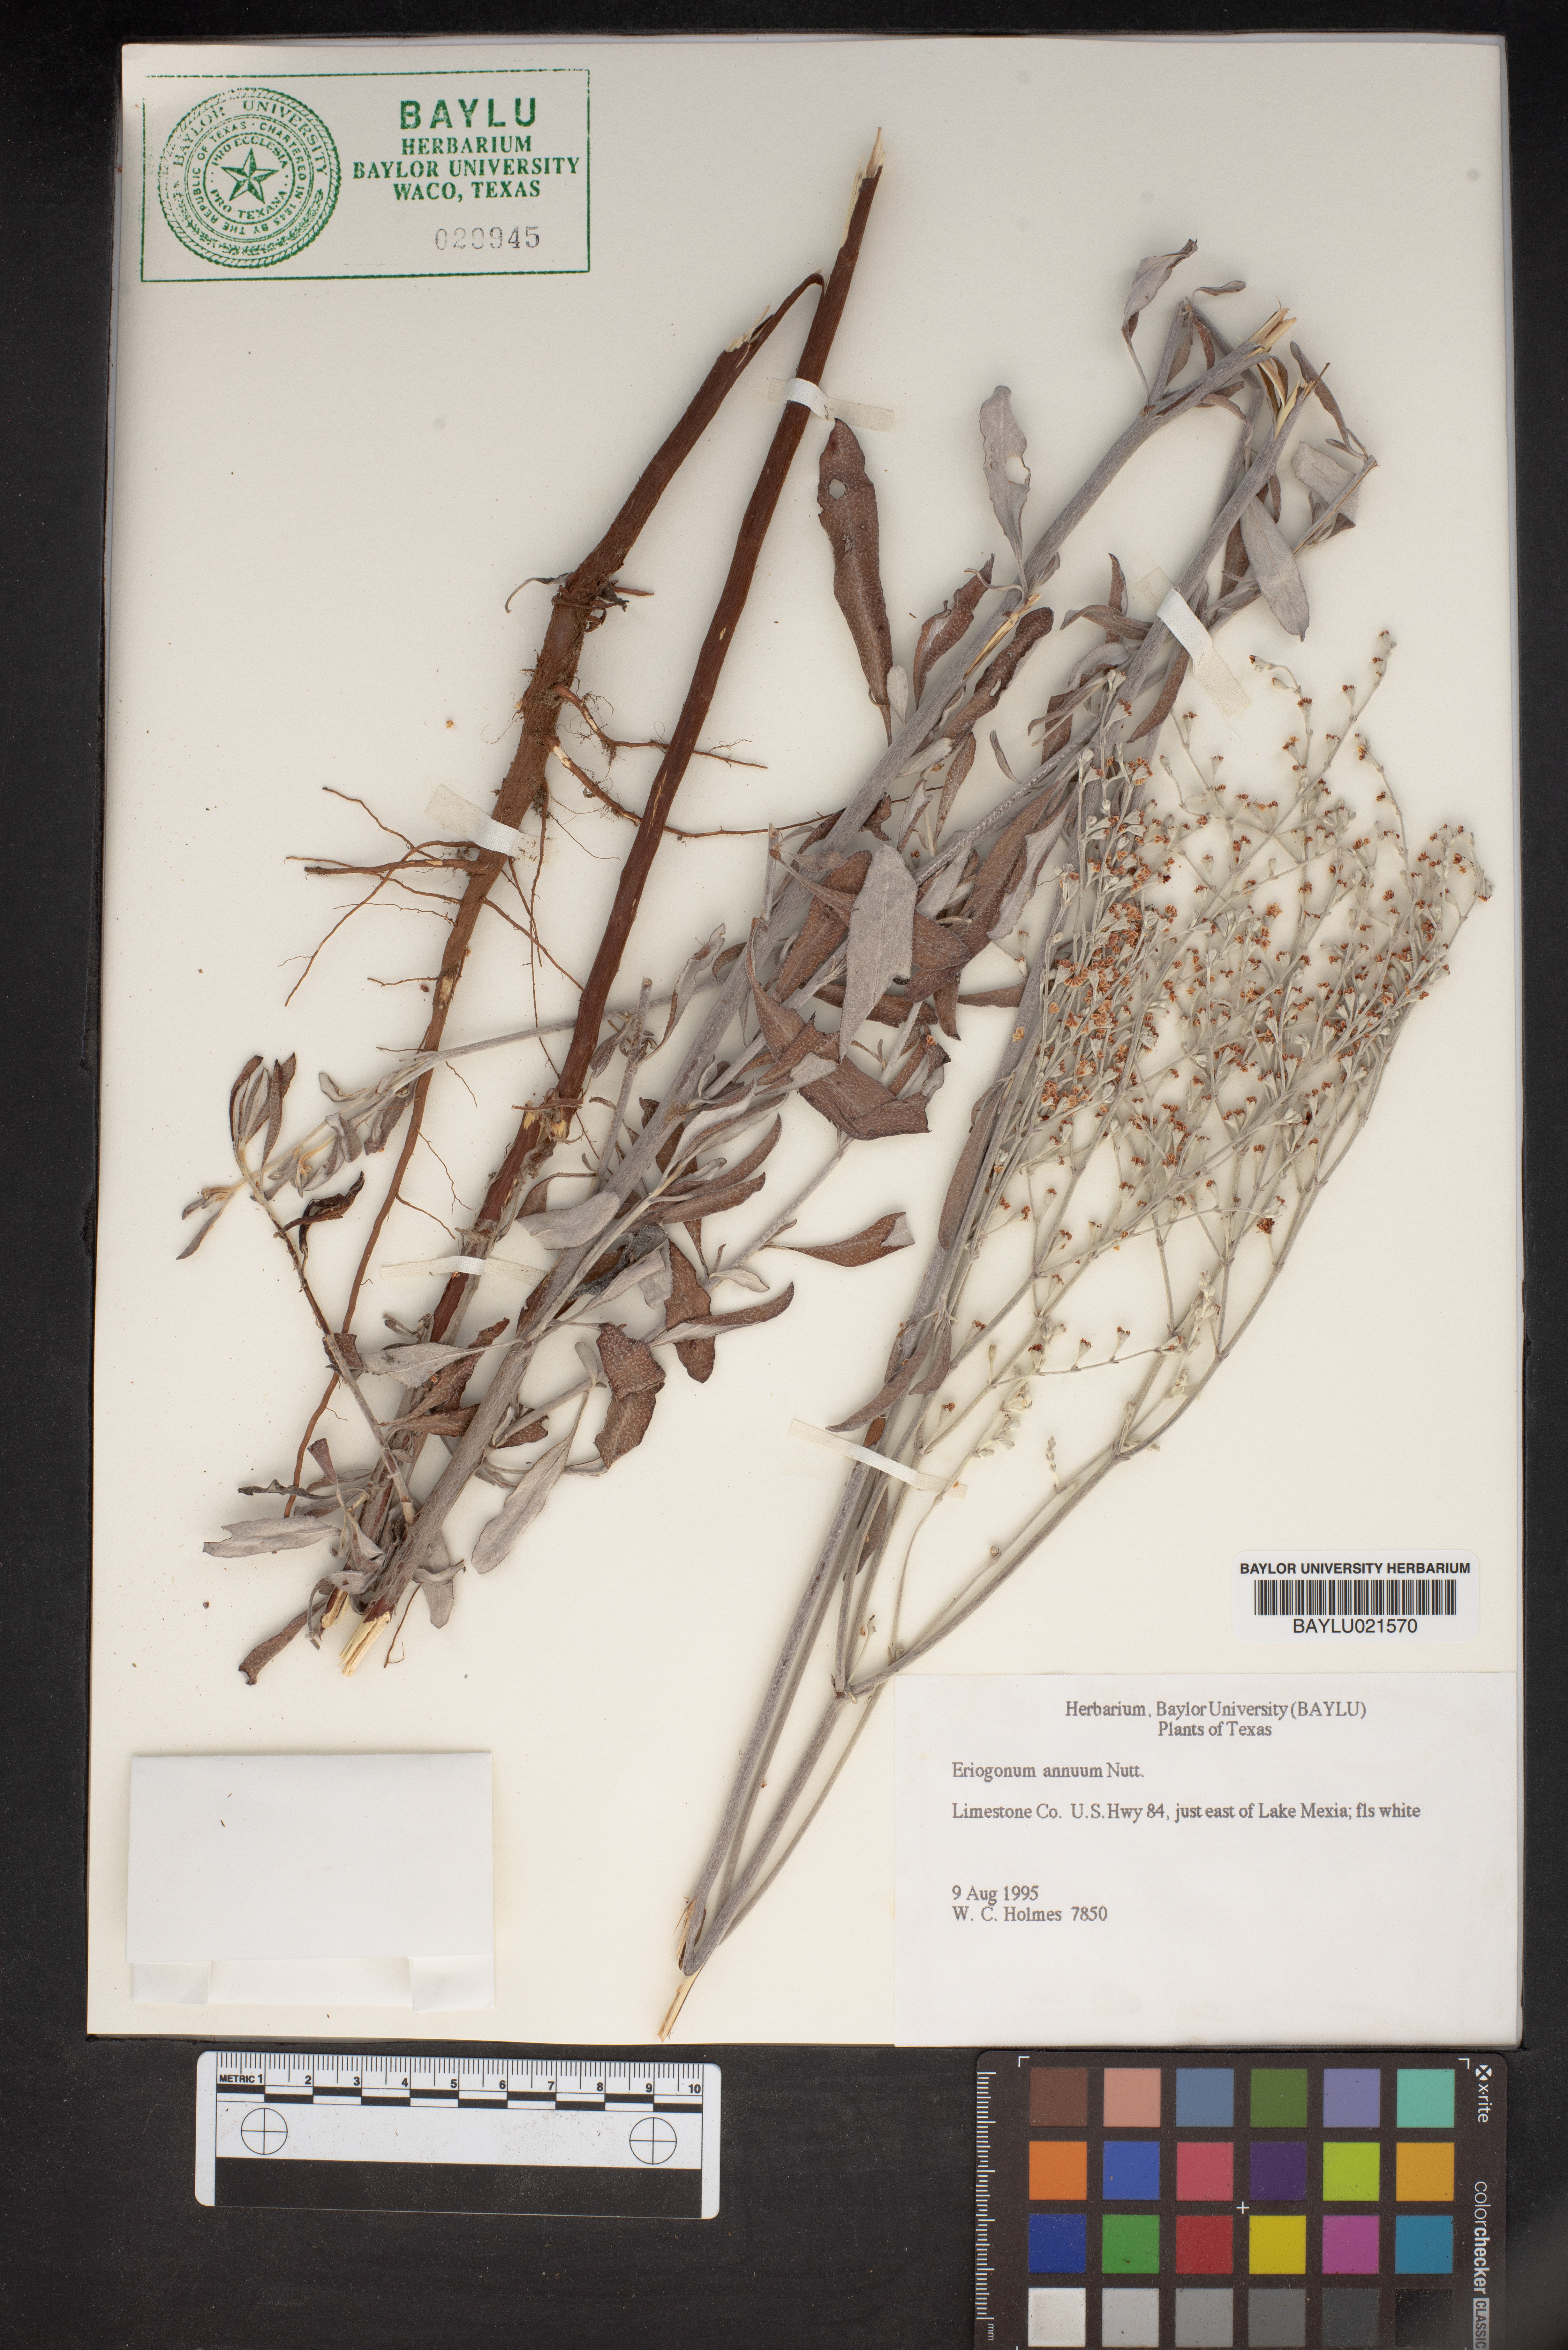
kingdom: Plantae
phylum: Tracheophyta
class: Magnoliopsida
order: Caryophyllales
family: Polygonaceae
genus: Eriogonum
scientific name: Eriogonum annuum
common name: Annual wild buckwheat
